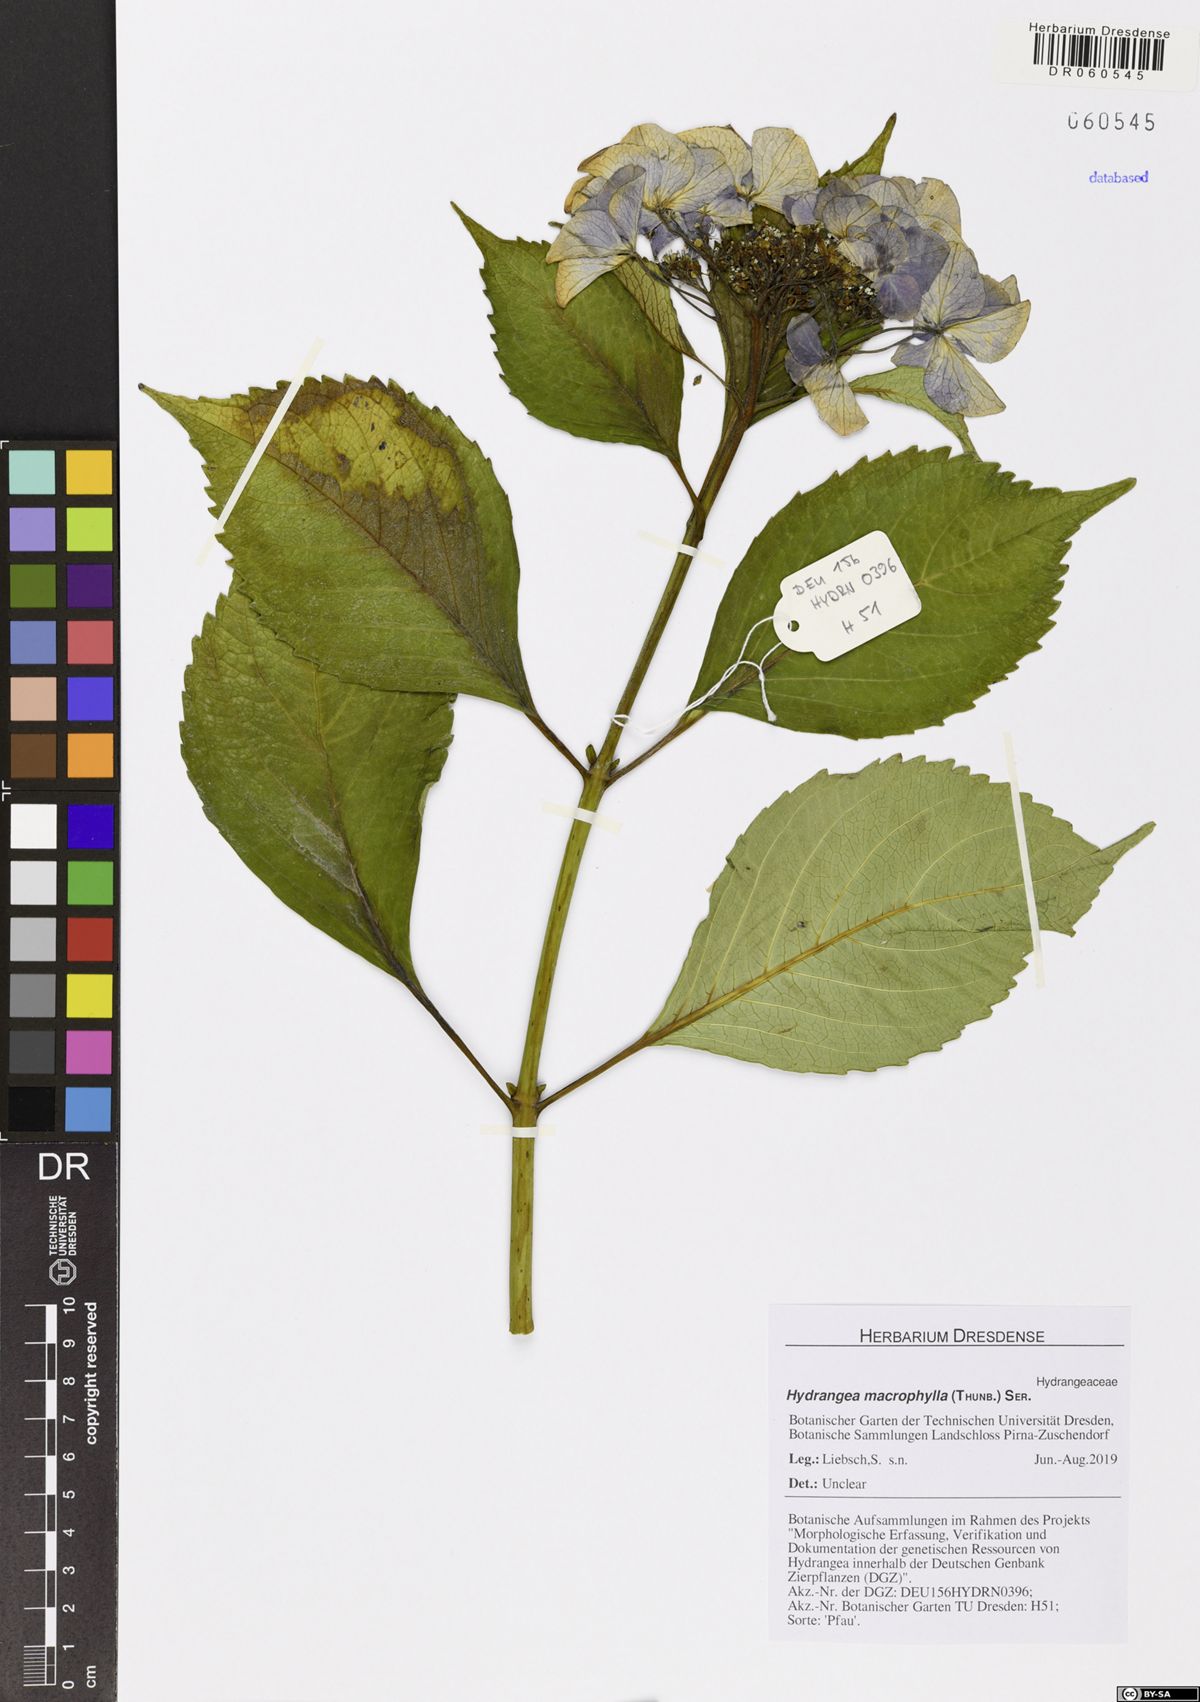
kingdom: Plantae
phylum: Tracheophyta
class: Magnoliopsida
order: Cornales
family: Hydrangeaceae
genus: Hydrangea
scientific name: Hydrangea macrophylla
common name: Hydrangea
